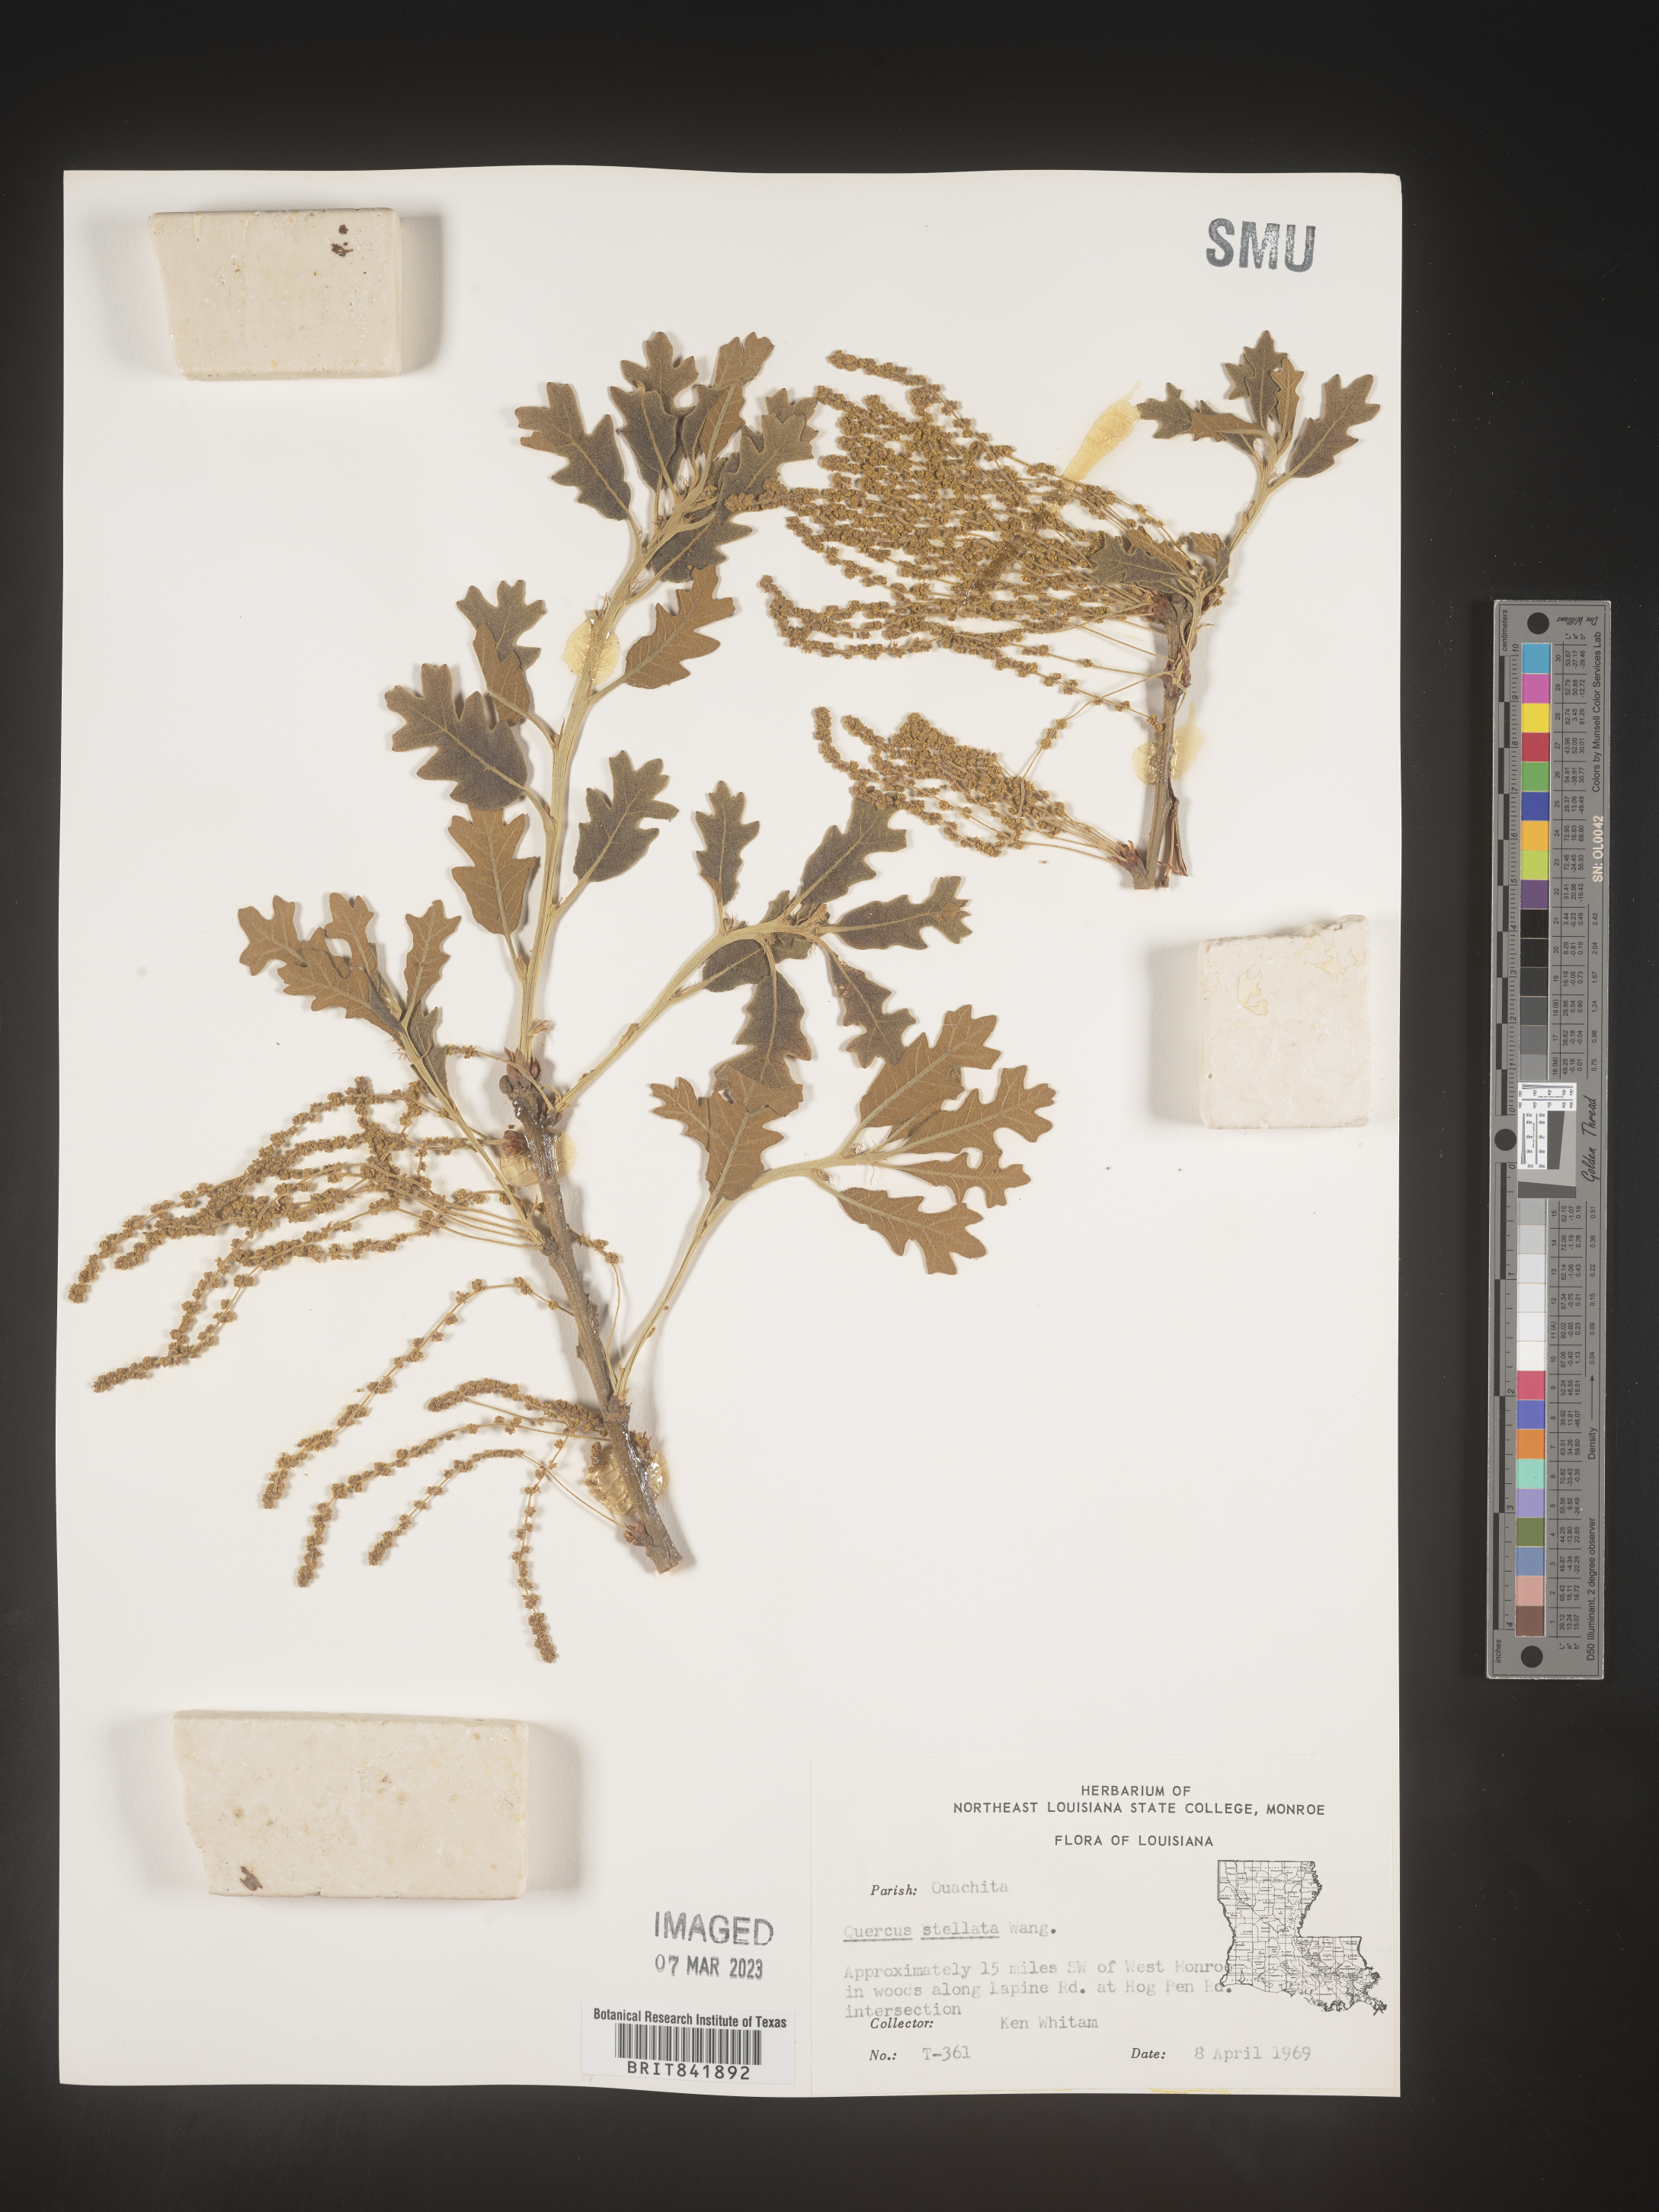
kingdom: Plantae
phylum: Tracheophyta
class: Magnoliopsida
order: Fagales
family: Fagaceae
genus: Quercus
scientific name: Quercus stellata
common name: Post oak
